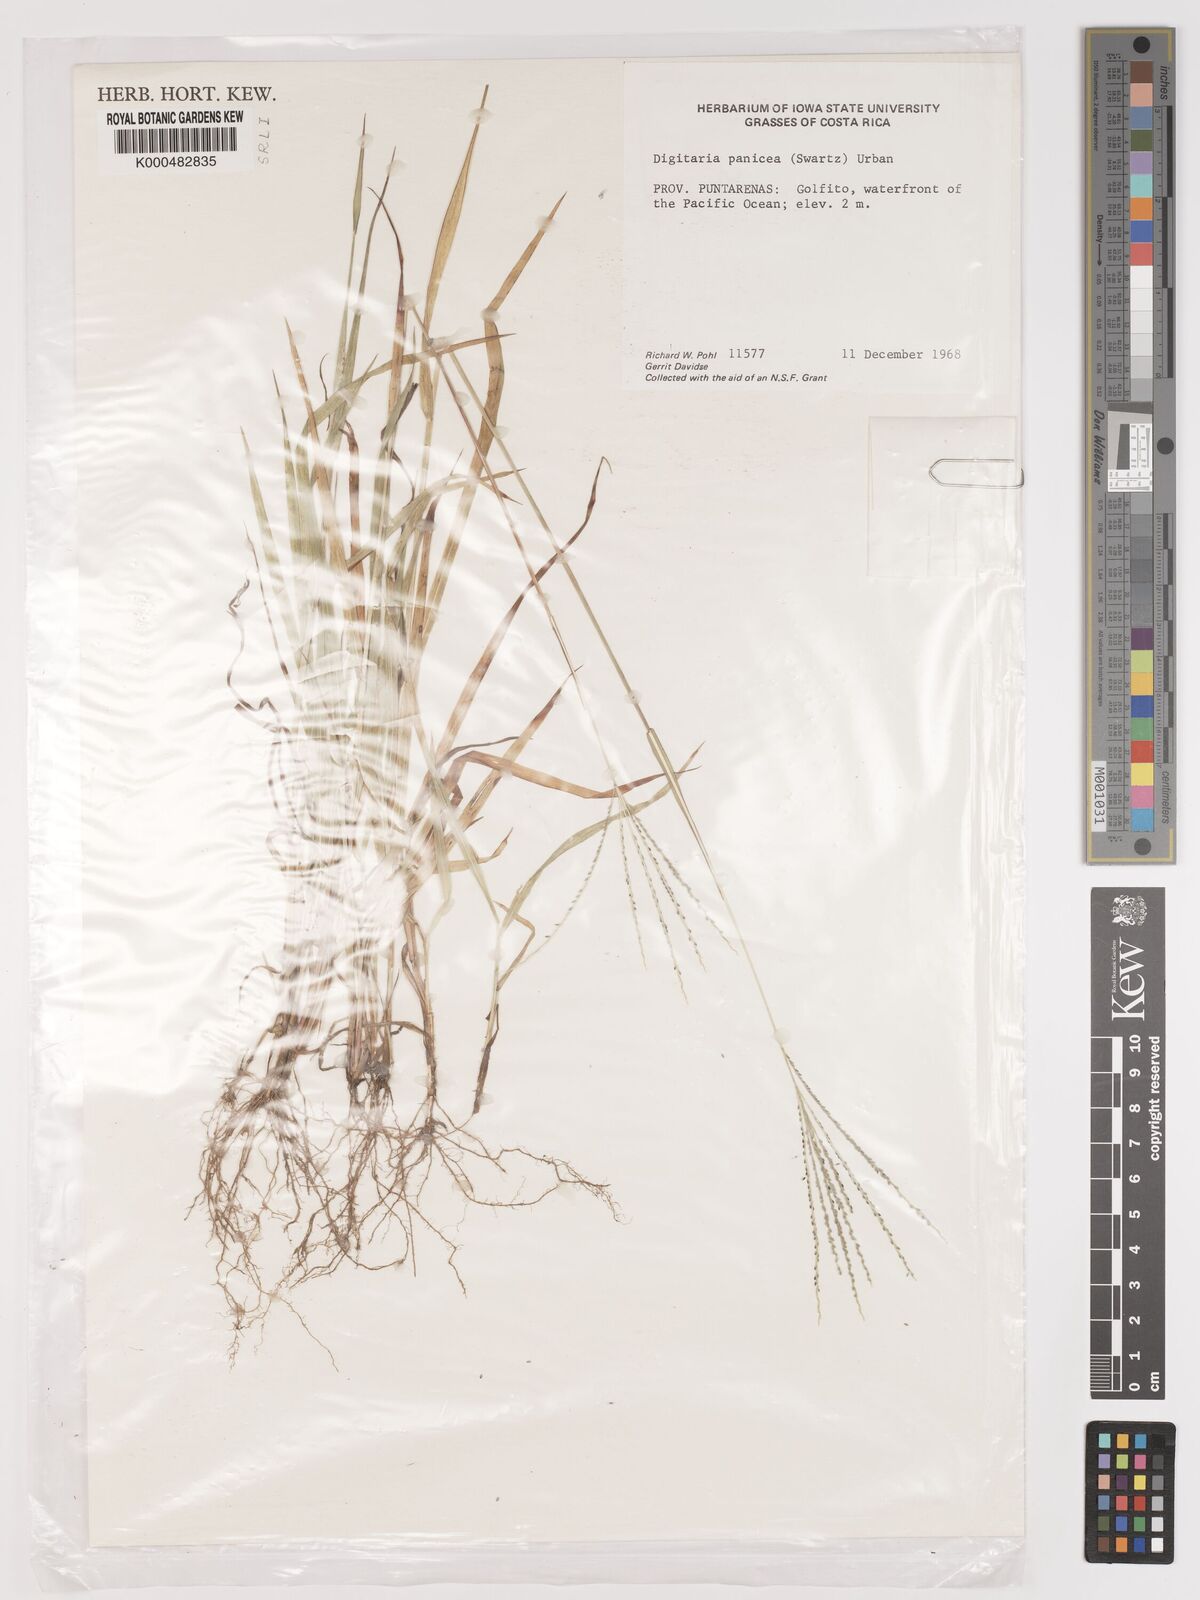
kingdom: Plantae
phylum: Tracheophyta
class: Liliopsida
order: Poales
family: Poaceae
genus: Digitaria
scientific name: Digitaria curvinervis
